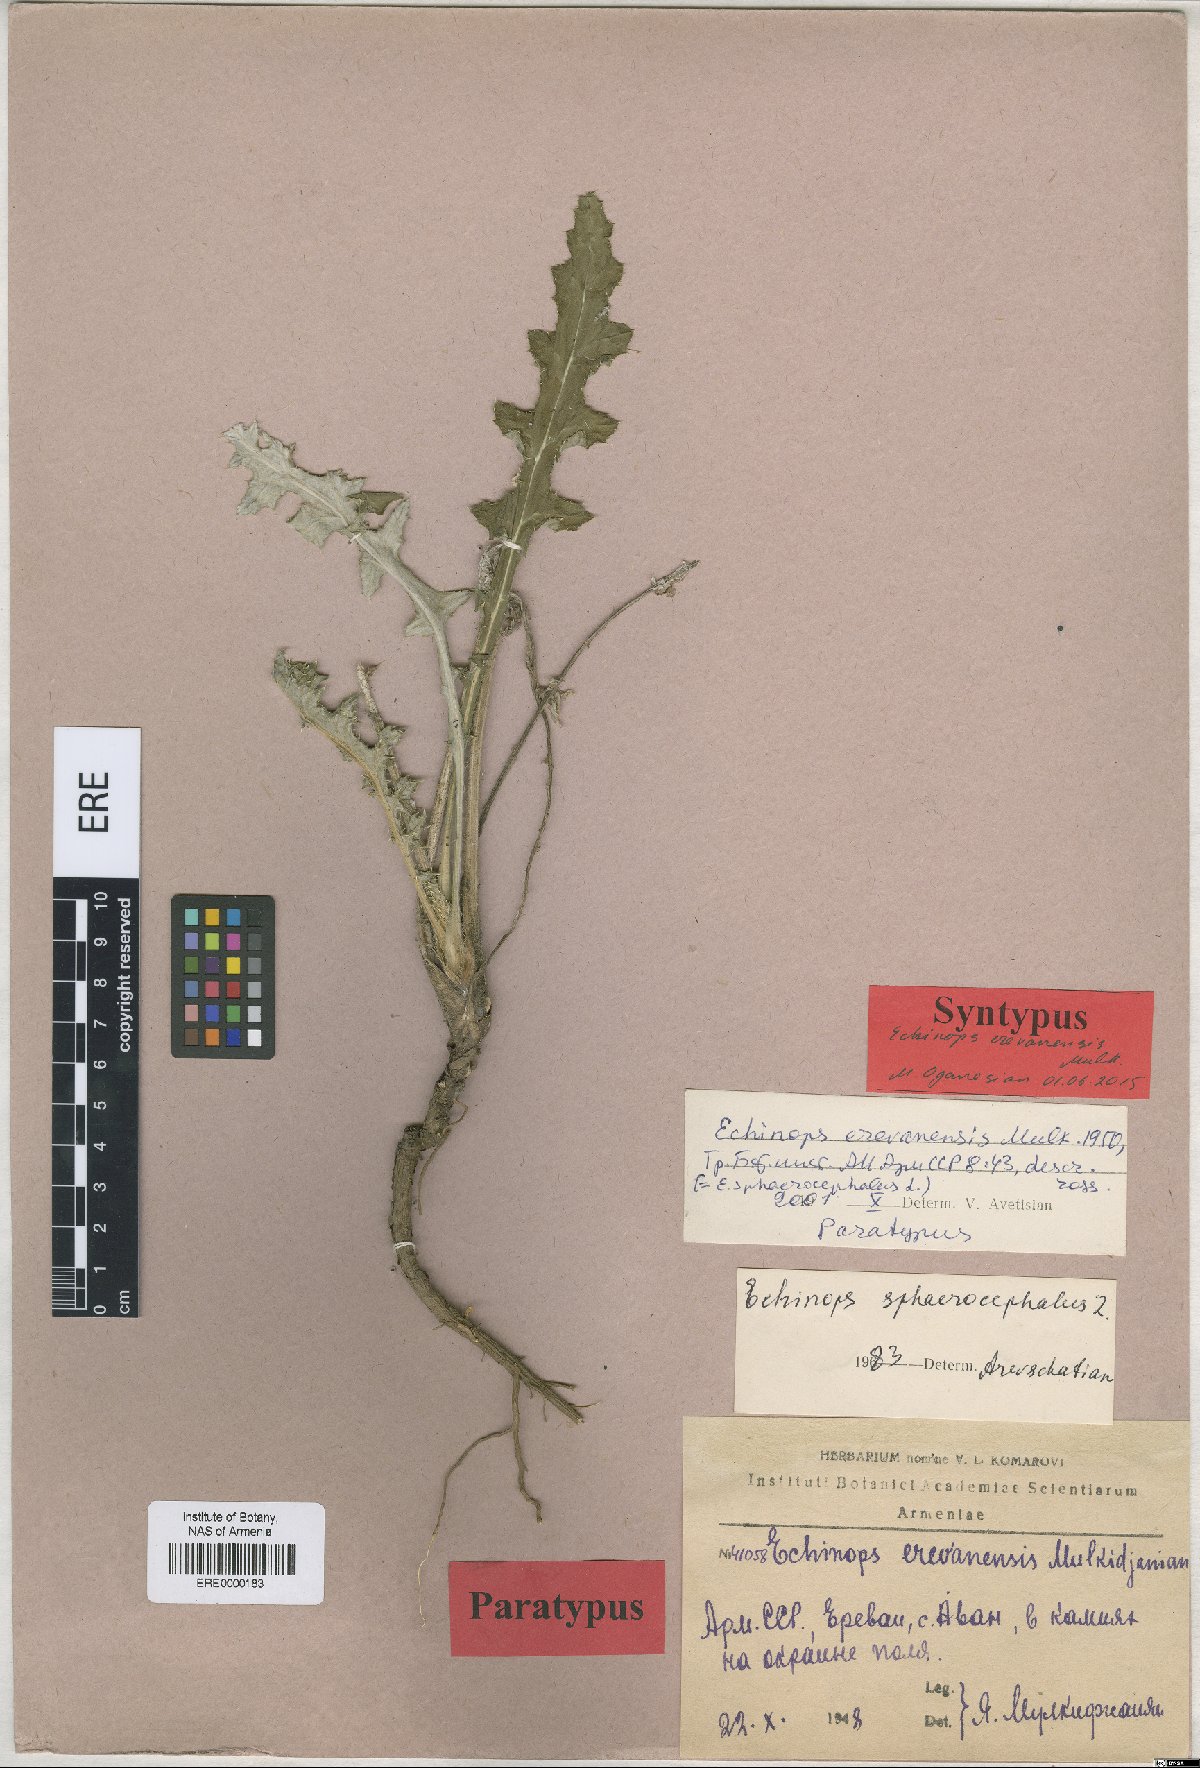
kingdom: Plantae
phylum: Tracheophyta
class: Magnoliopsida
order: Asterales
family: Asteraceae
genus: Echinops
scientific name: Echinops sphaerocephalus
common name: Glandular globe-thistle
